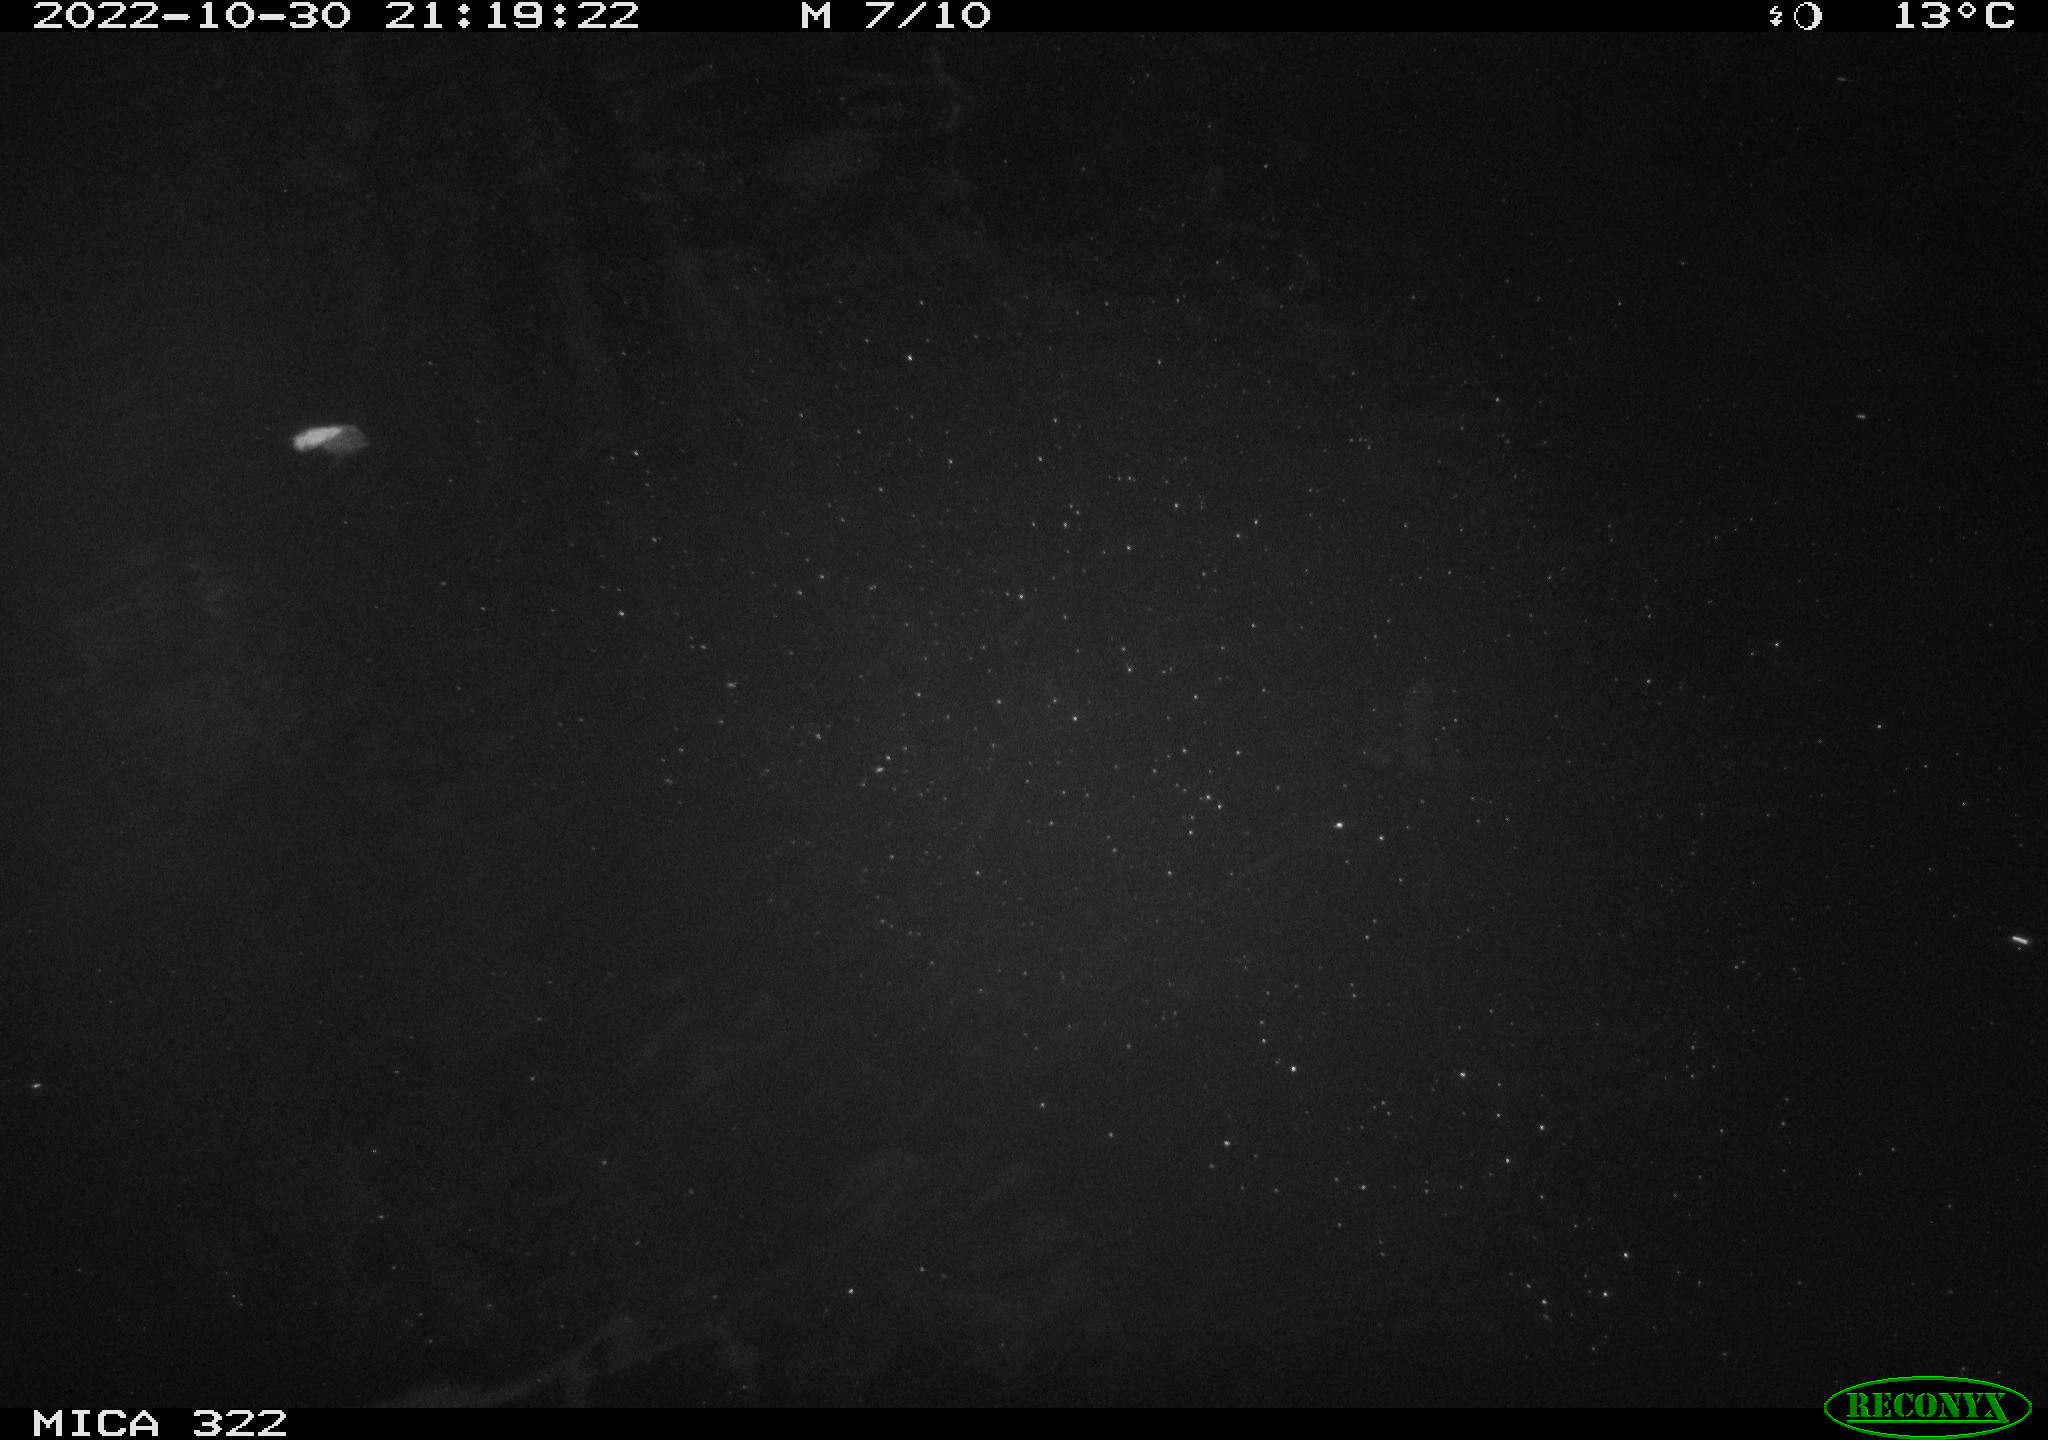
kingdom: Animalia
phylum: Chordata
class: Mammalia
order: Rodentia
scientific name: Rodentia
